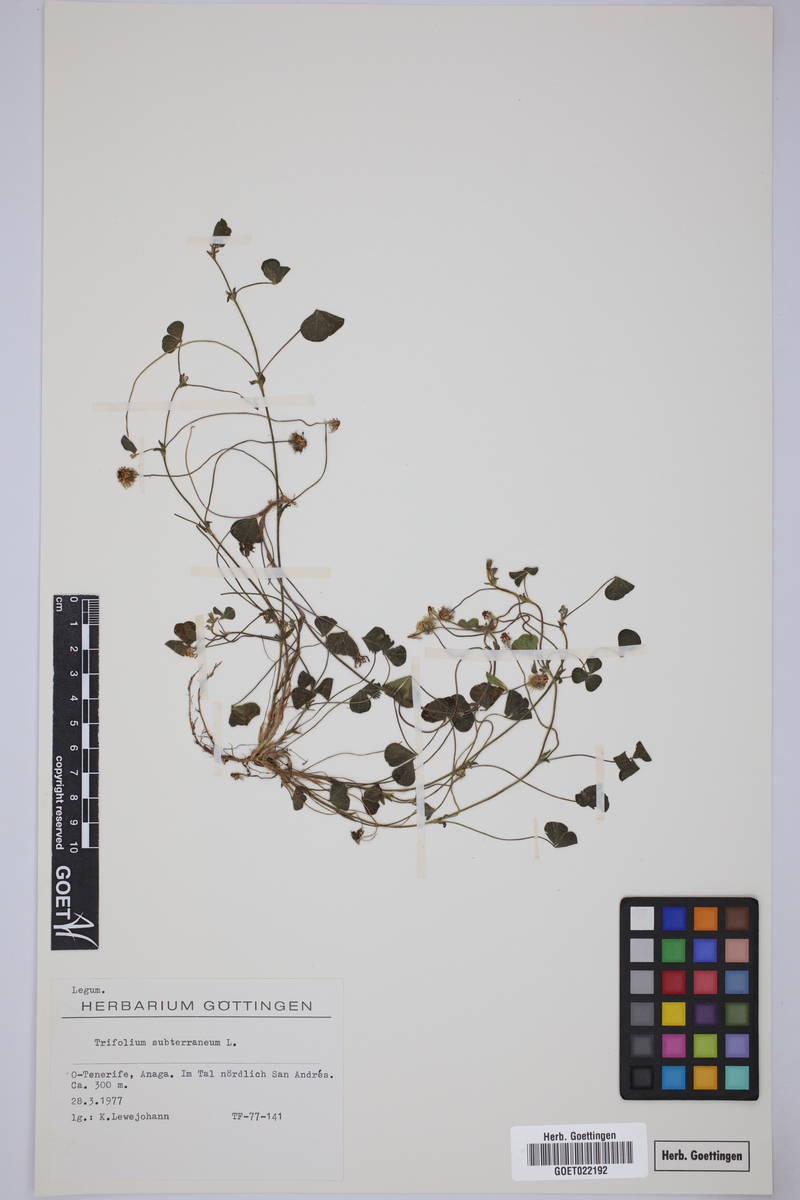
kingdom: Plantae
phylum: Tracheophyta
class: Magnoliopsida
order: Fabales
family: Fabaceae
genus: Trifolium
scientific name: Trifolium subterraneum
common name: Subterranean clover
